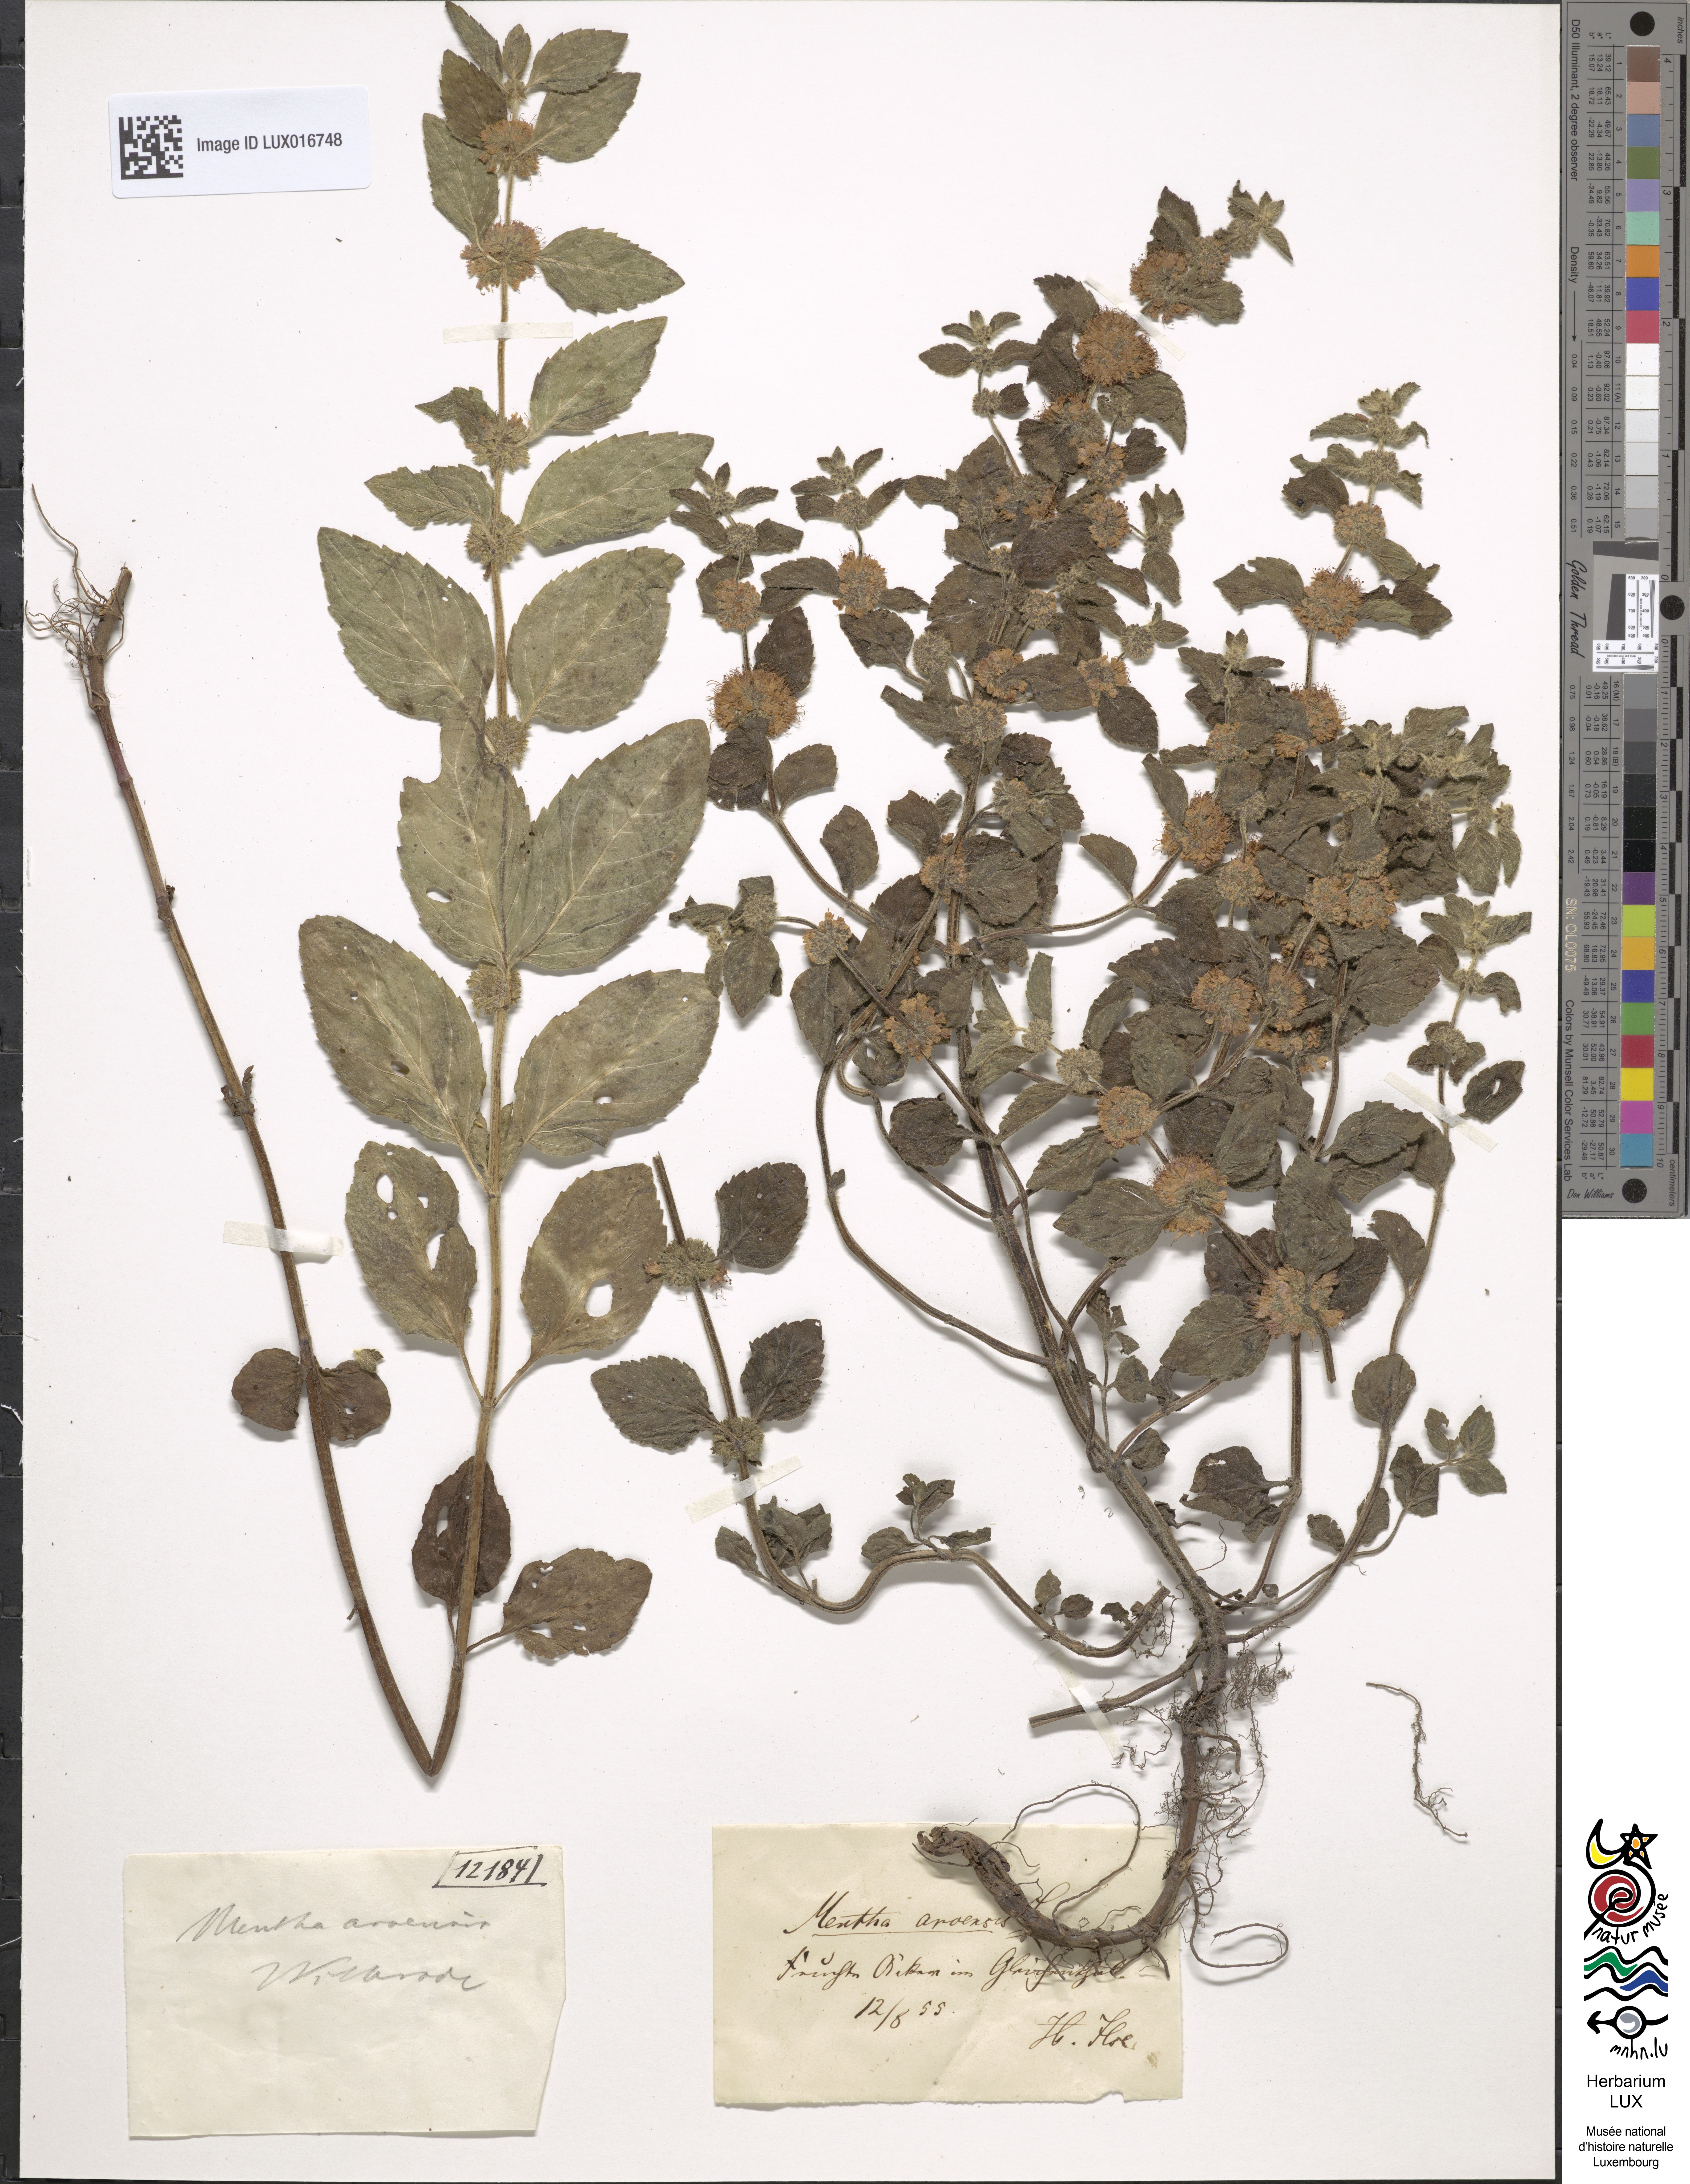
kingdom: Plantae
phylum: Tracheophyta
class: Magnoliopsida
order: Lamiales
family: Lamiaceae
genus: Mentha
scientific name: Mentha arvensis
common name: Corn mint
